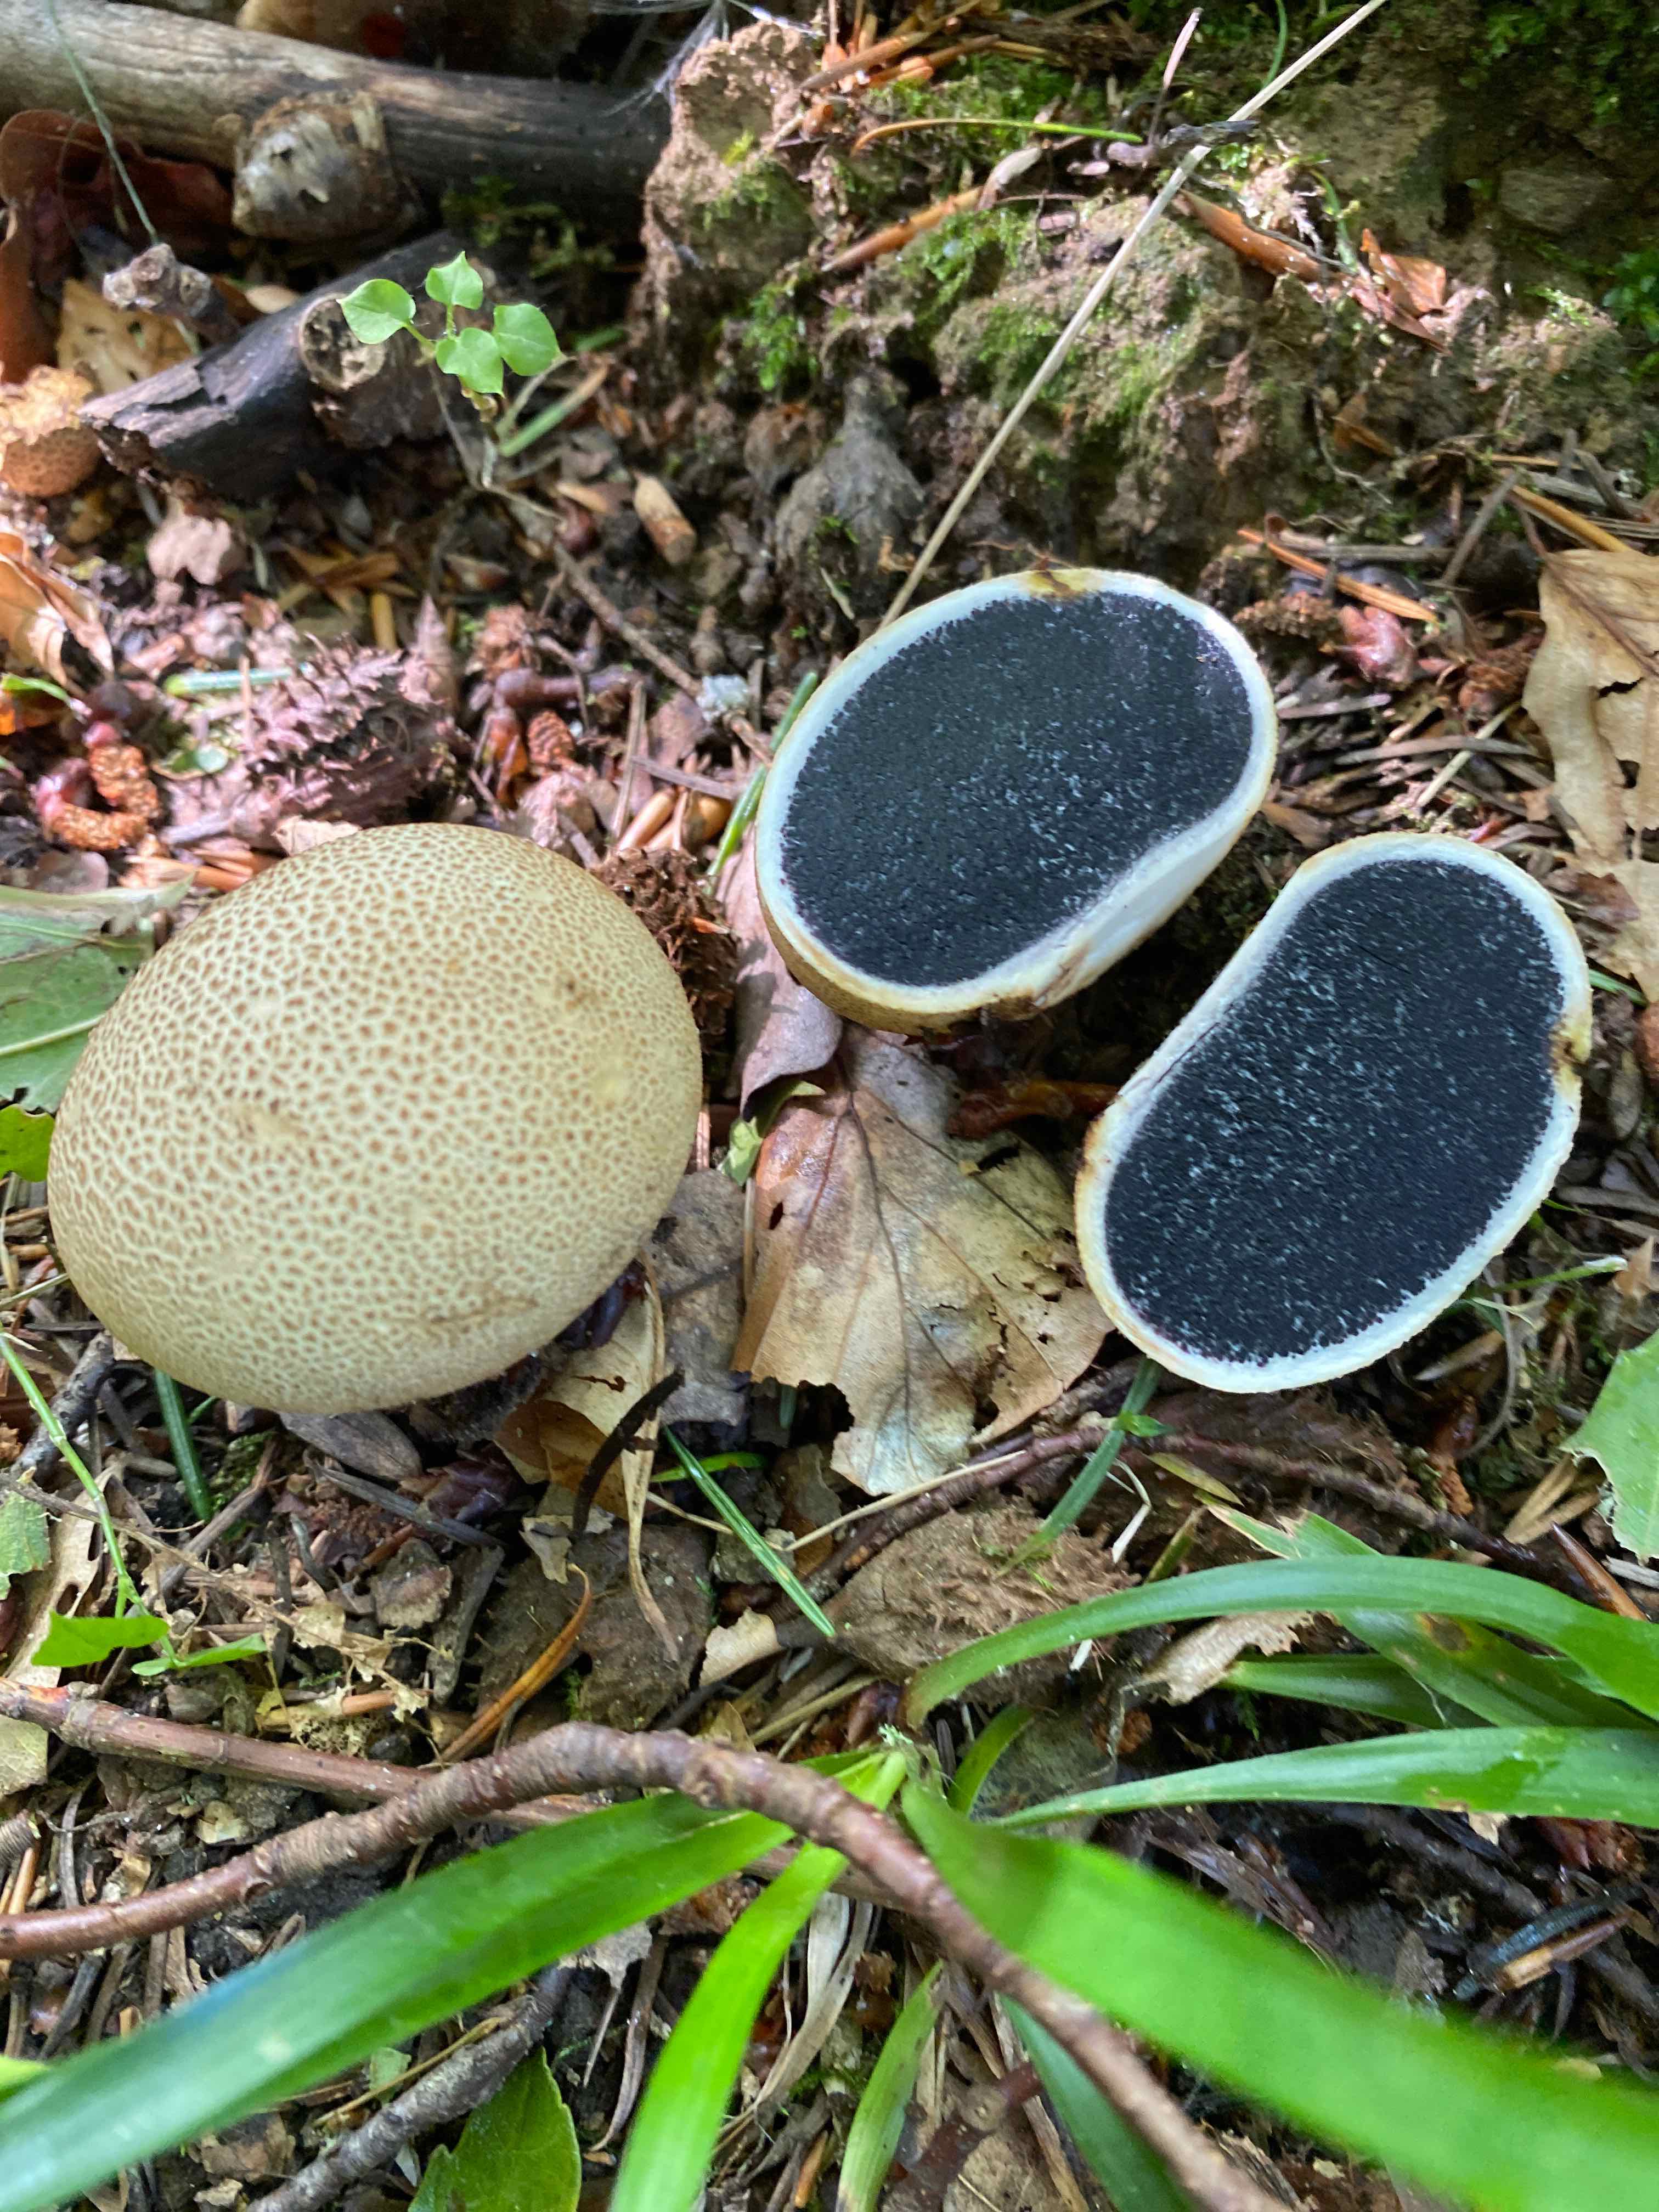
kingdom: Fungi
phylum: Basidiomycota
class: Agaricomycetes
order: Boletales
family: Sclerodermataceae
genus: Scleroderma
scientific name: Scleroderma citrinum
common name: almindelig bruskbold
